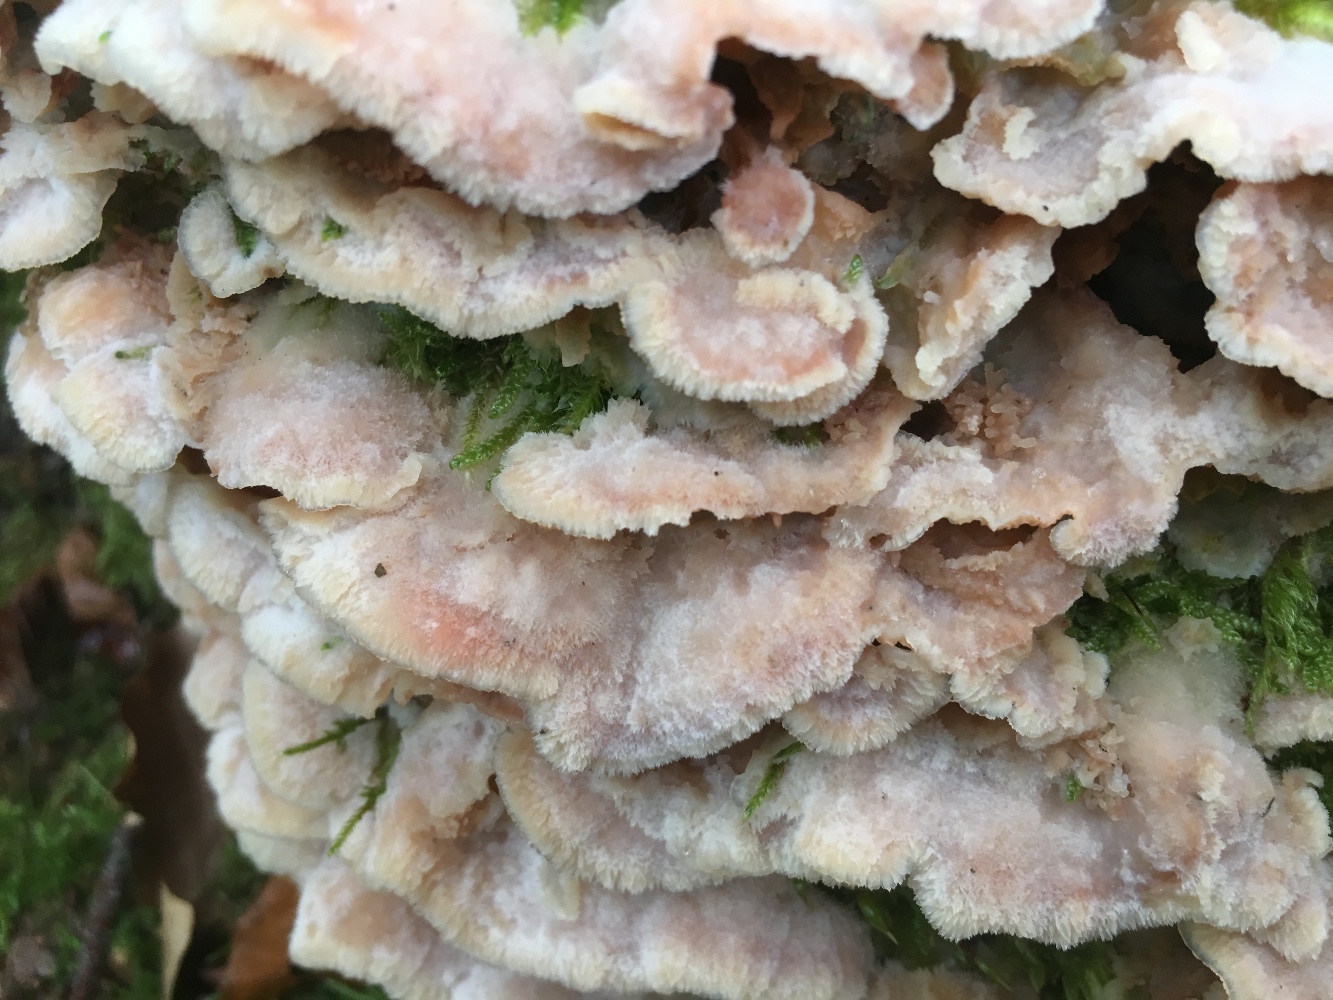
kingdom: Fungi
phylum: Basidiomycota
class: Agaricomycetes
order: Polyporales
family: Meruliaceae
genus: Phlebia
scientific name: Phlebia tremellosa
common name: bævrende åresvamp
